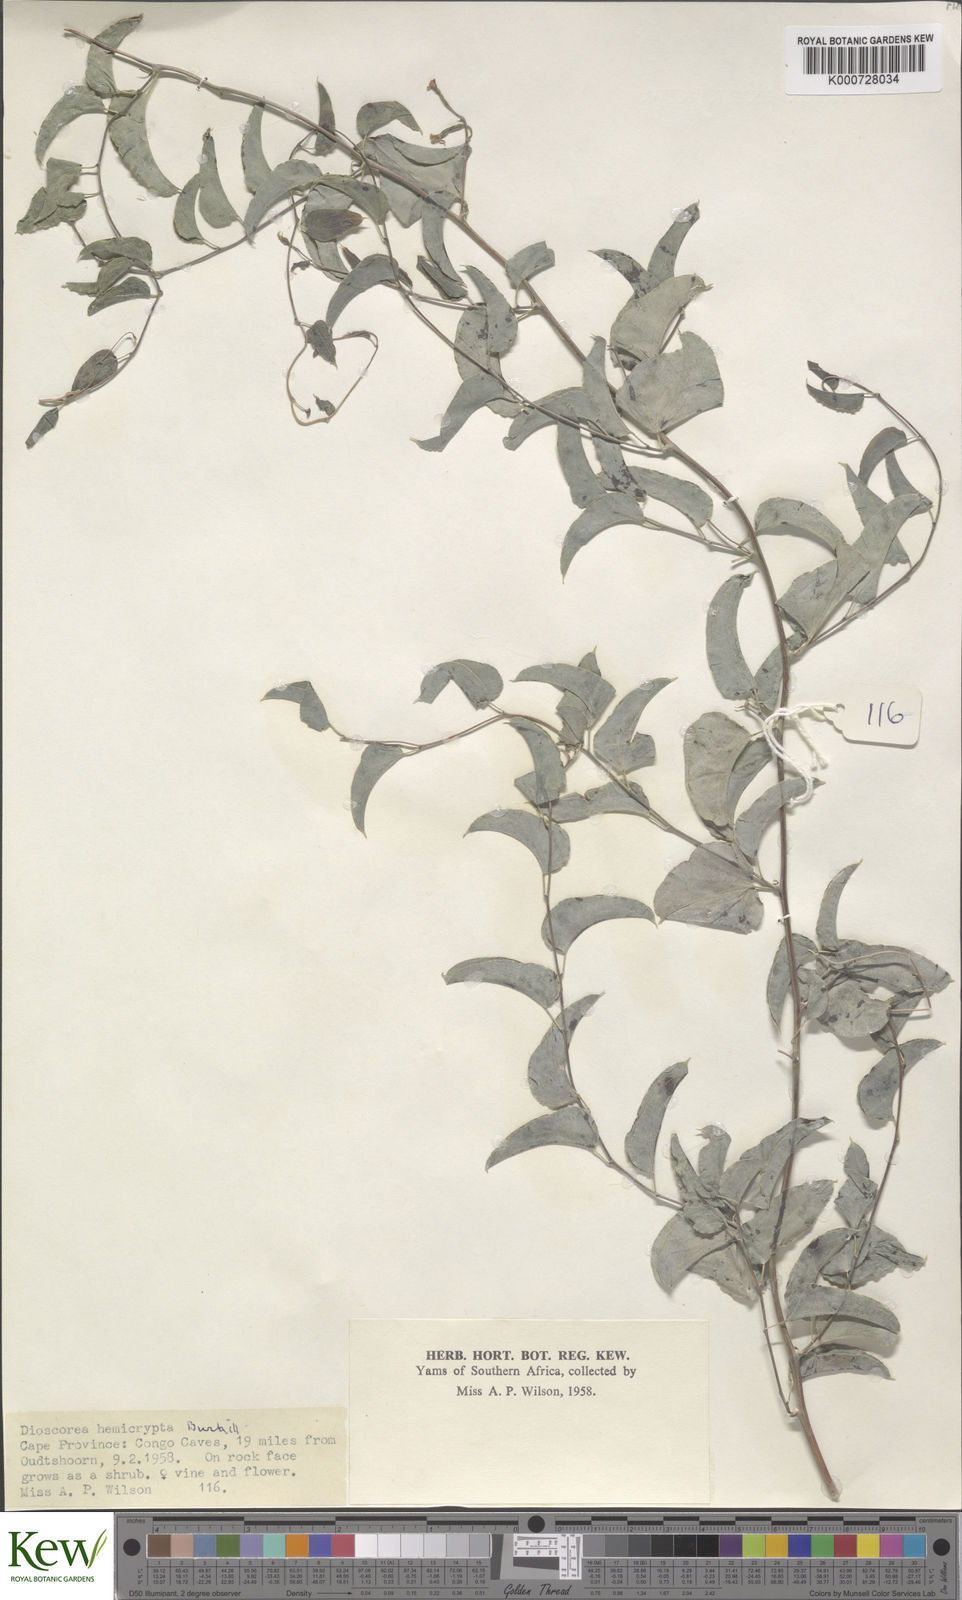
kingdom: Plantae
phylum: Tracheophyta
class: Liliopsida
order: Dioscoreales
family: Dioscoreaceae
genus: Dioscorea
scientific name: Dioscorea hemicrypta
